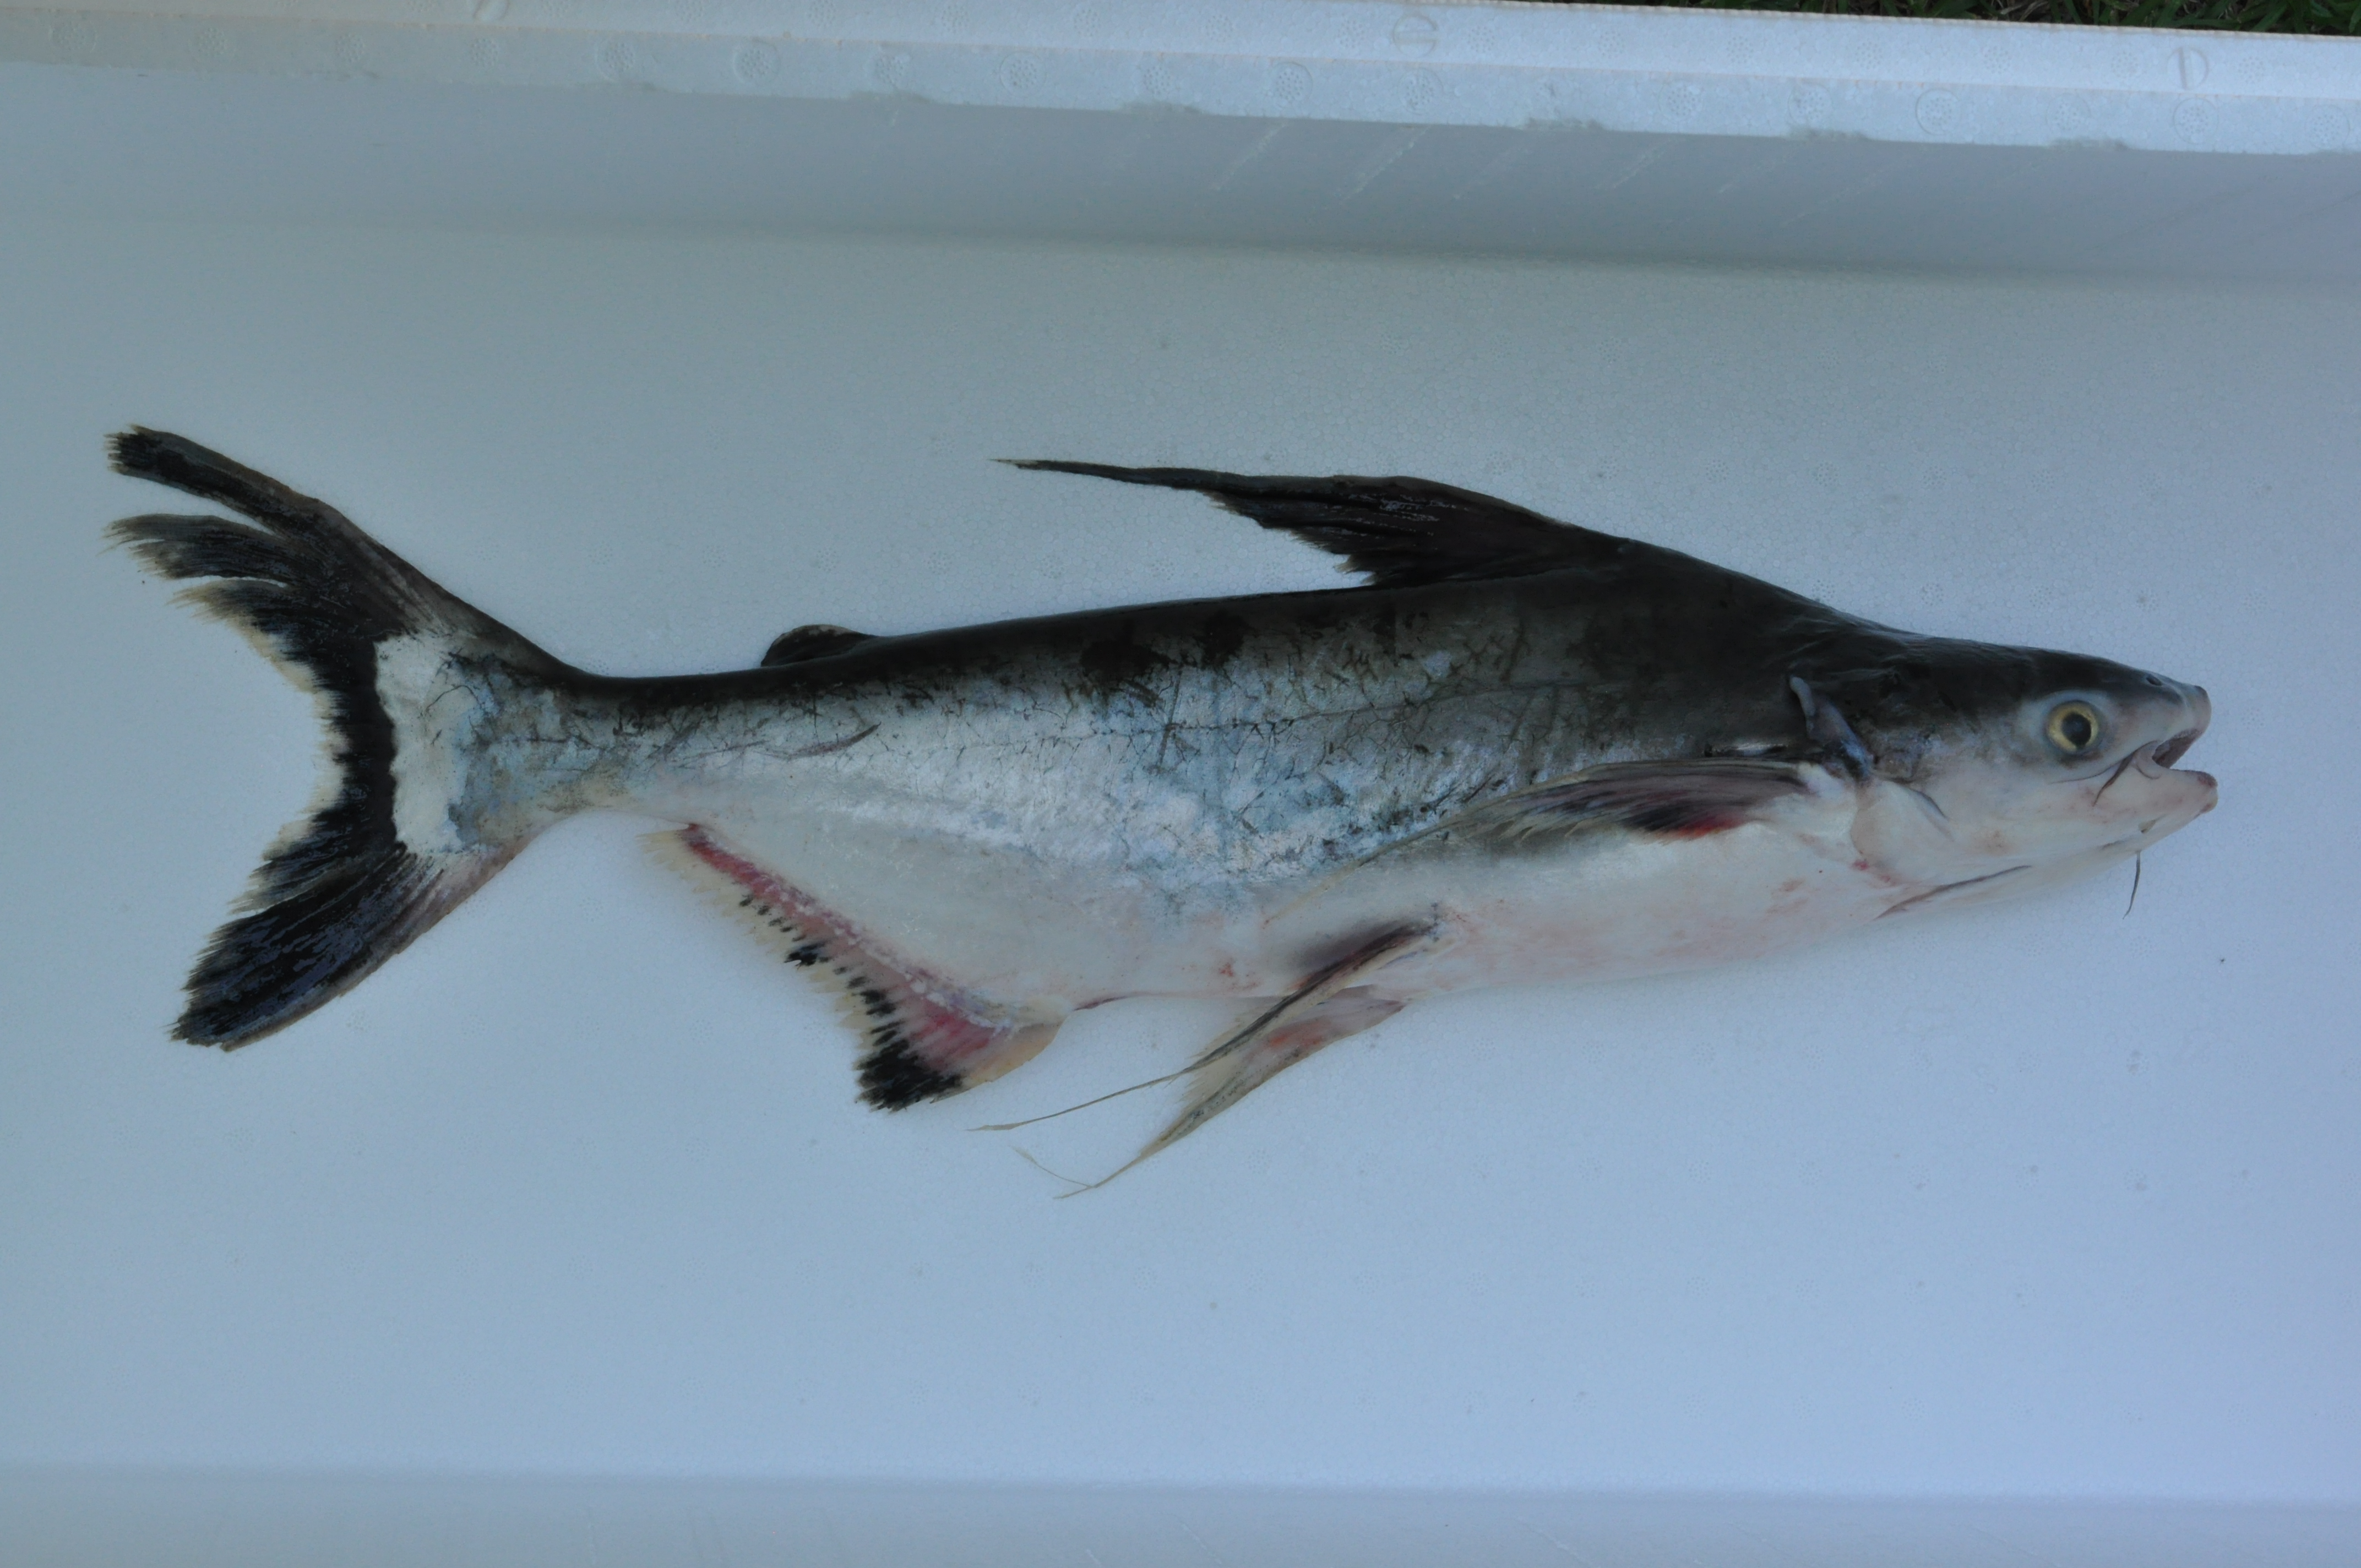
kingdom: Animalia
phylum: Chordata
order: Siluriformes
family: Pangasiidae
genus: Pangasius
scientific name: Pangasius
